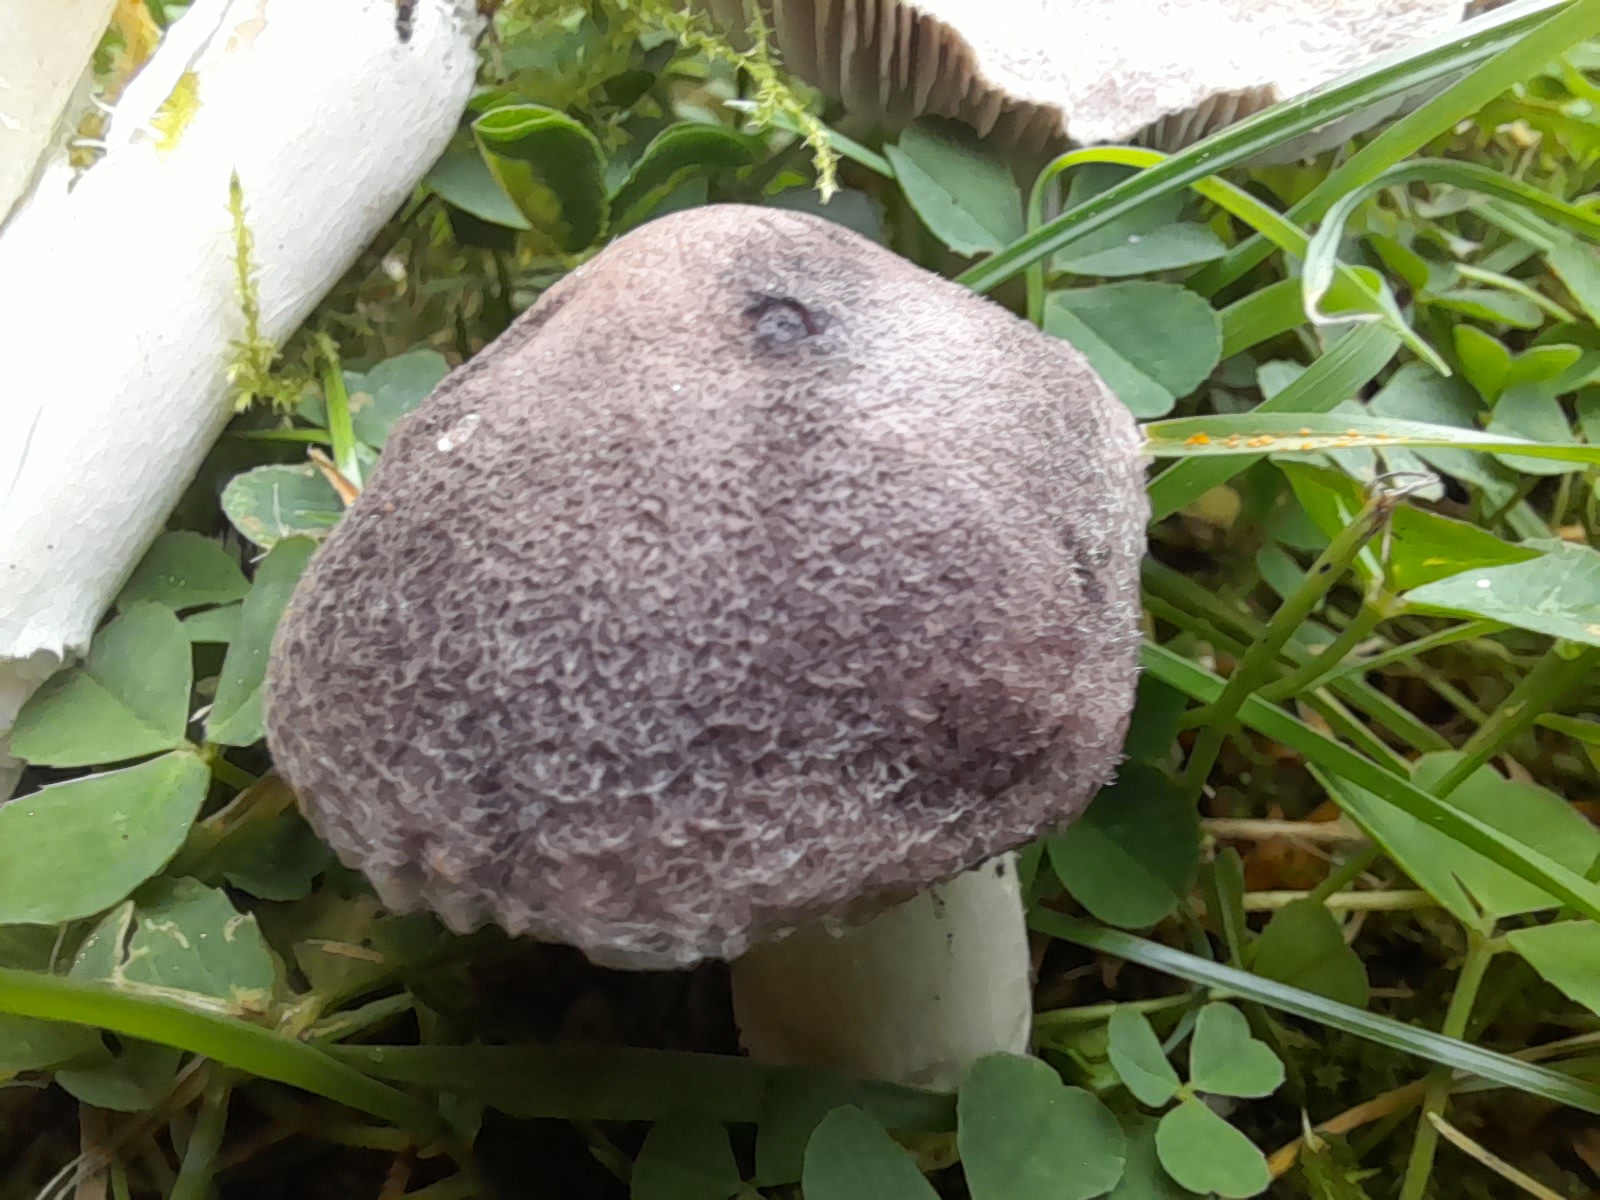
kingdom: Fungi
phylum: Basidiomycota
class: Agaricomycetes
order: Agaricales
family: Tricholomataceae
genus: Tricholoma
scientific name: Tricholoma terreum
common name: jordfarvet ridderhat
